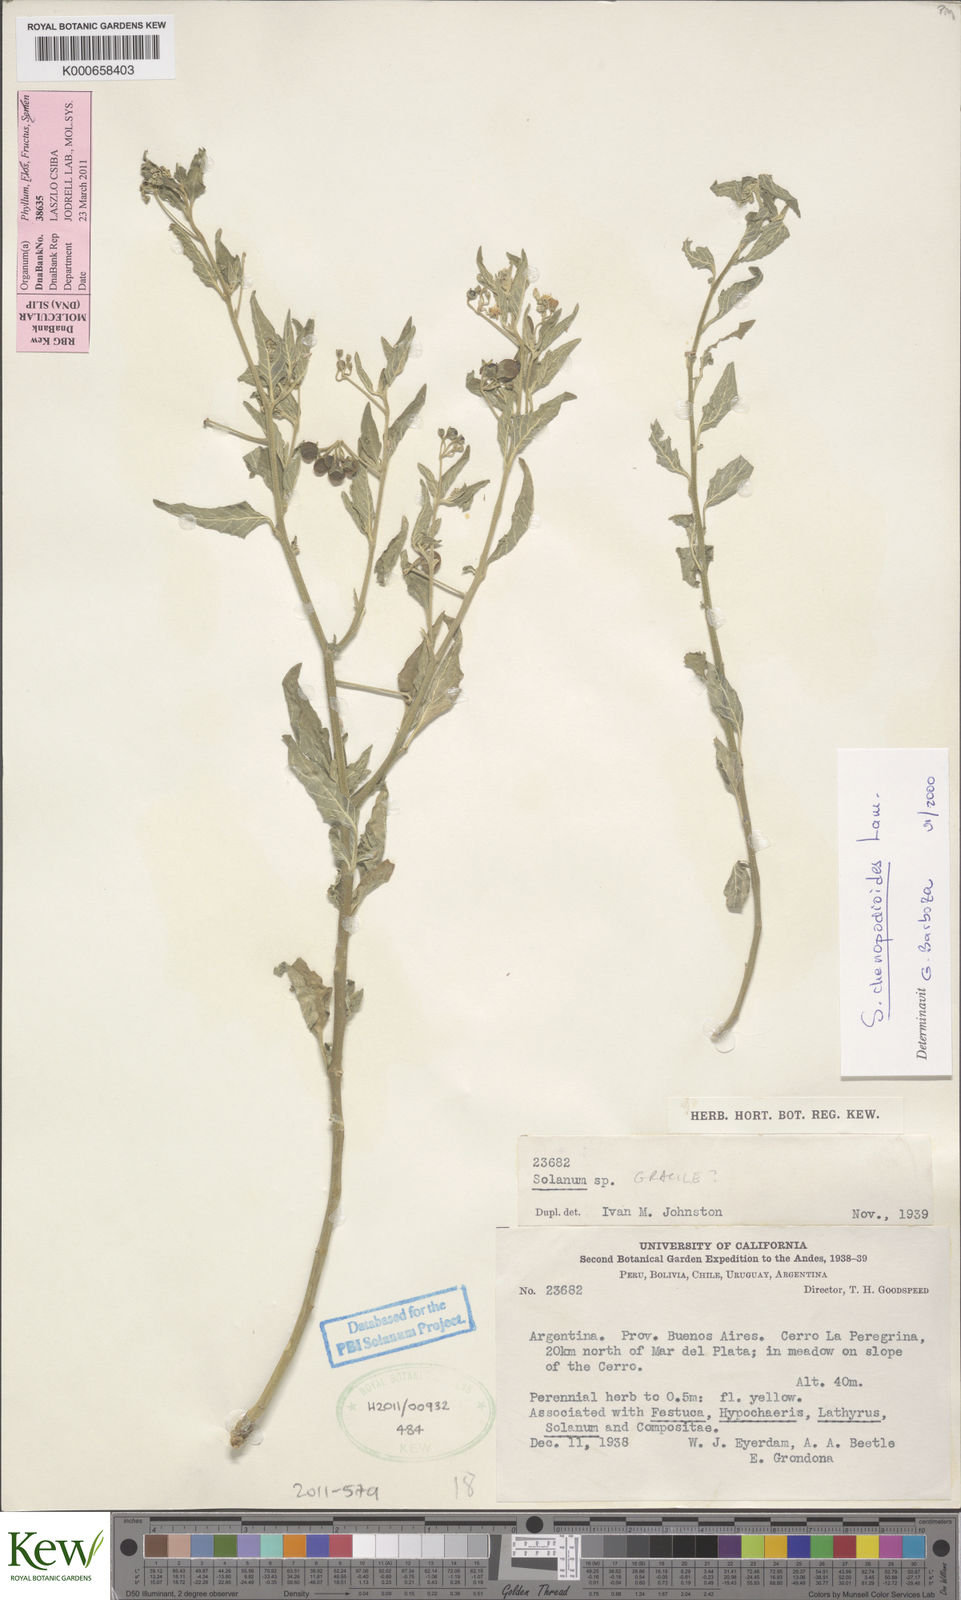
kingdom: Plantae
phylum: Tracheophyta
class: Magnoliopsida
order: Solanales
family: Solanaceae
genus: Solanum
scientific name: Solanum chenopodioides
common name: Tall nightshade
